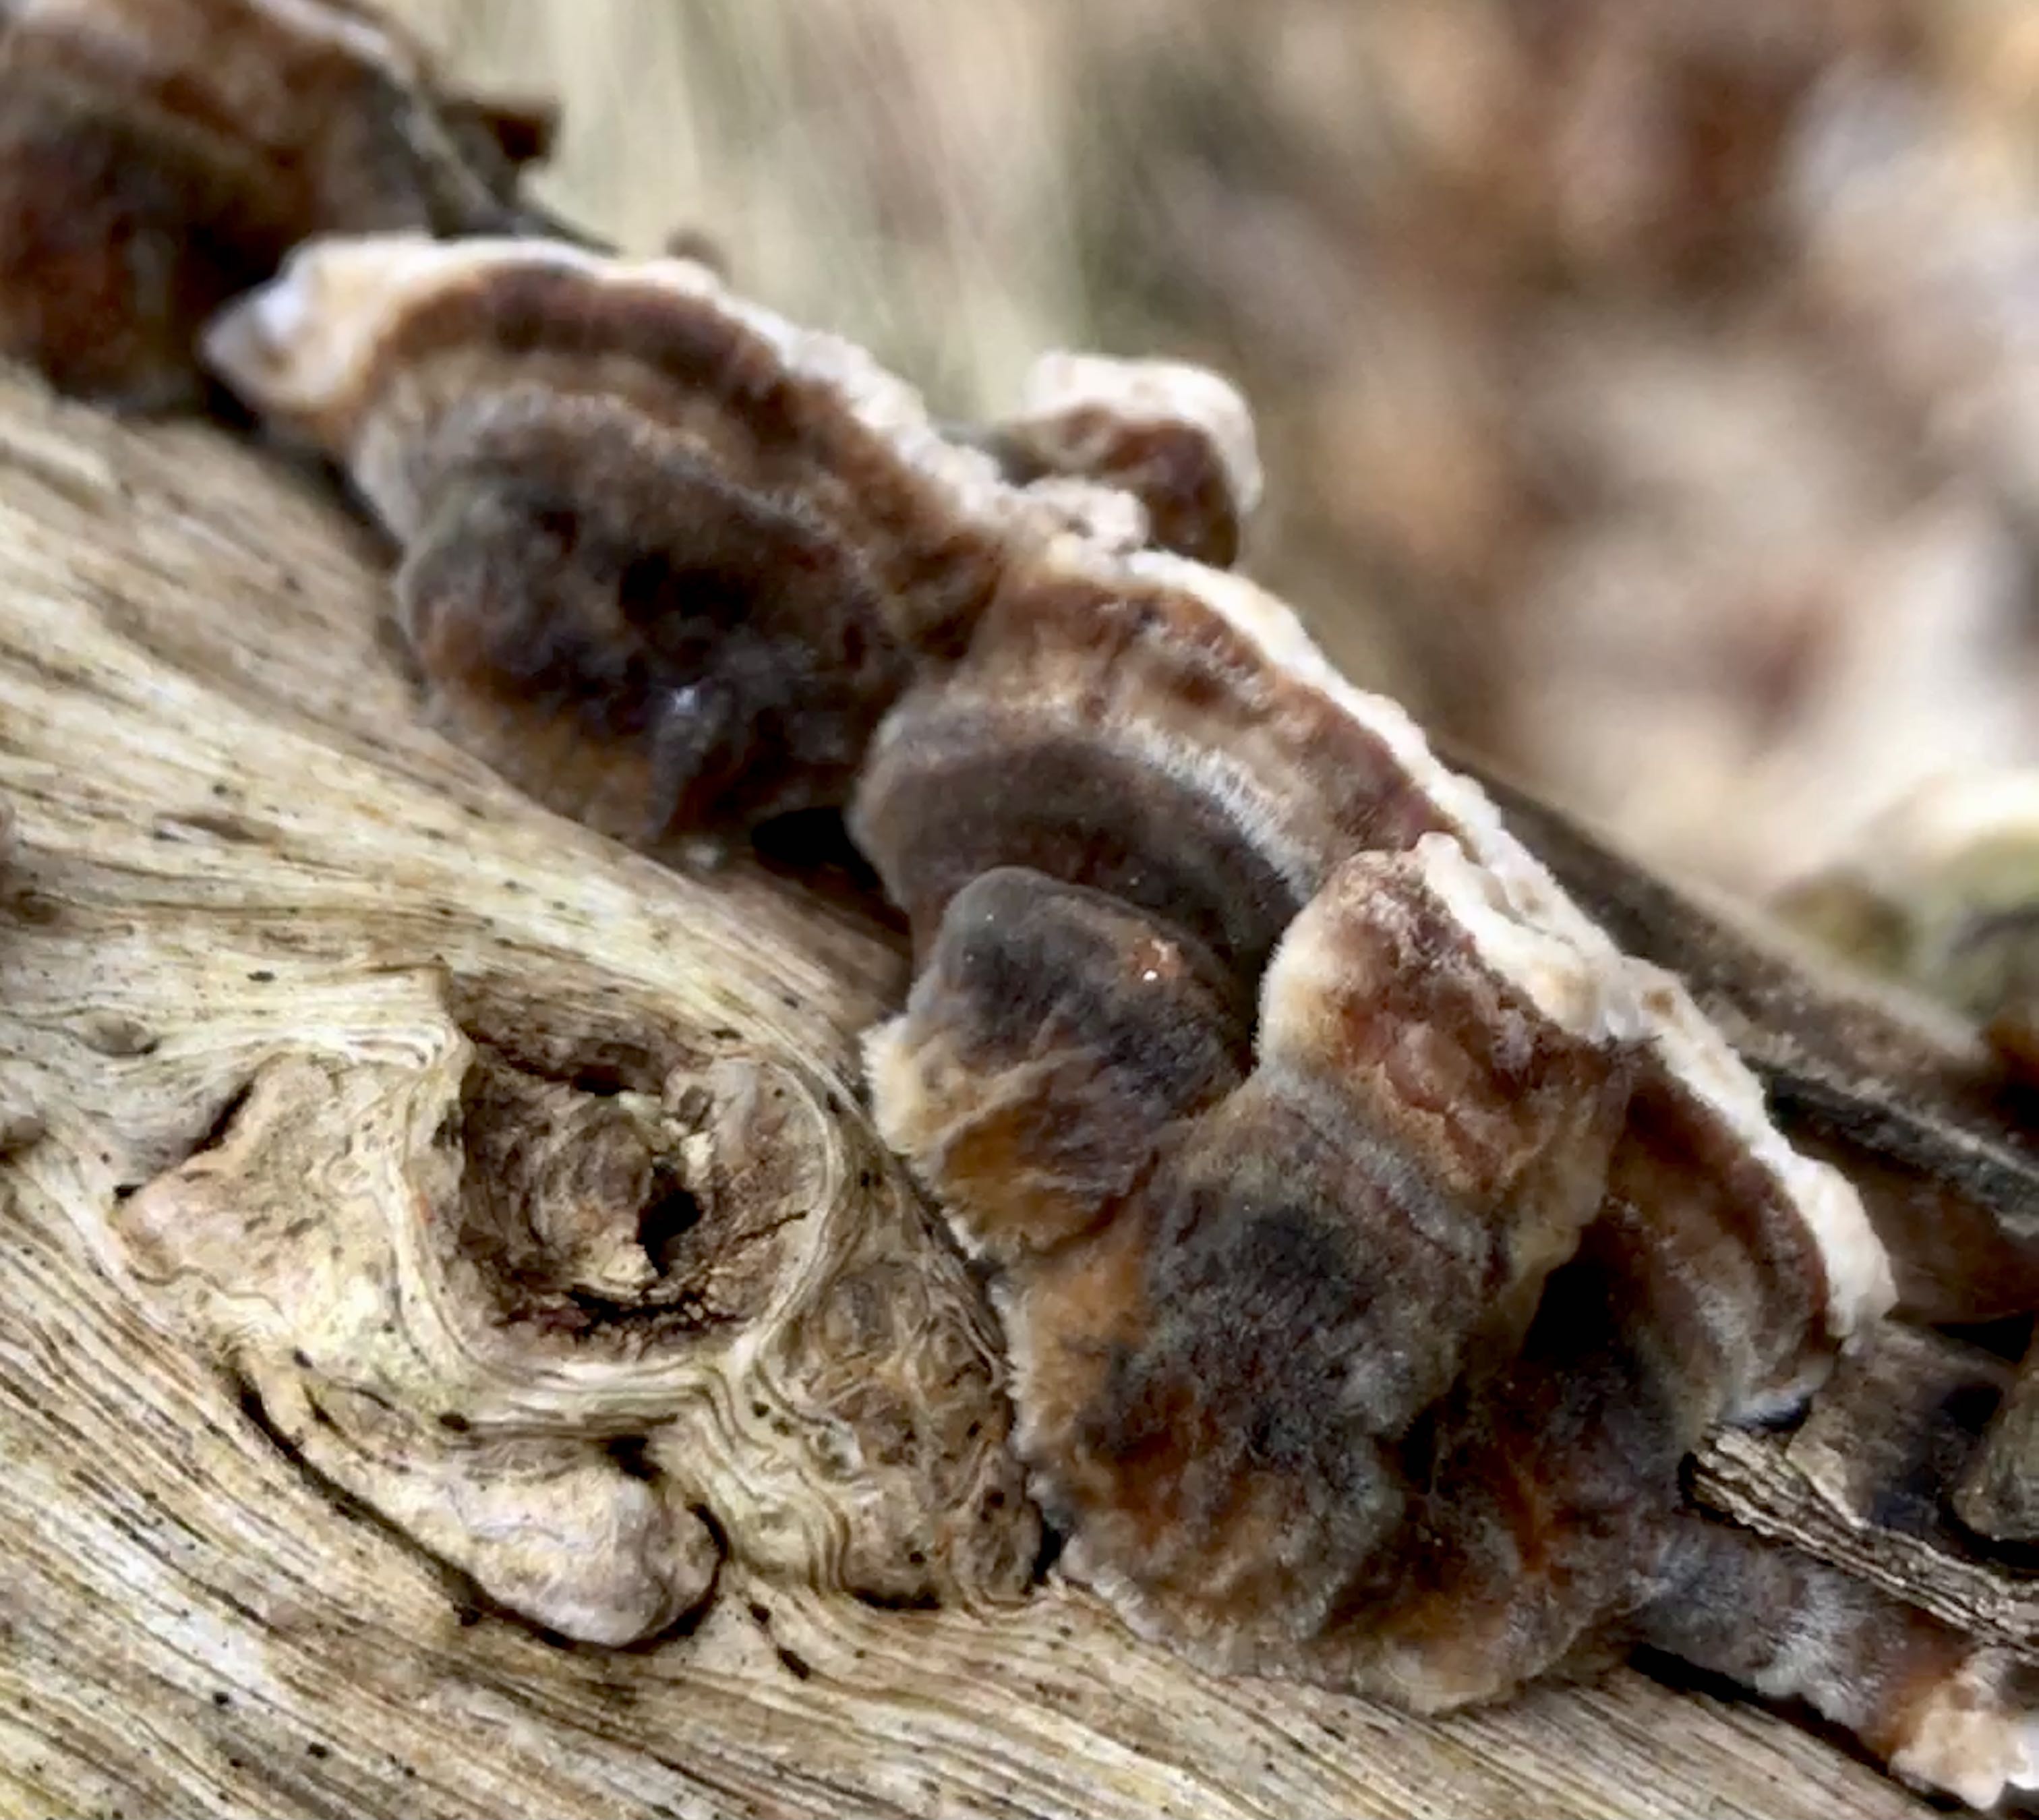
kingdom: Fungi
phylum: Basidiomycota
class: Agaricomycetes
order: Polyporales
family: Polyporaceae
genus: Podofomes
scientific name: Podofomes mollis
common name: blød begporesvamp
